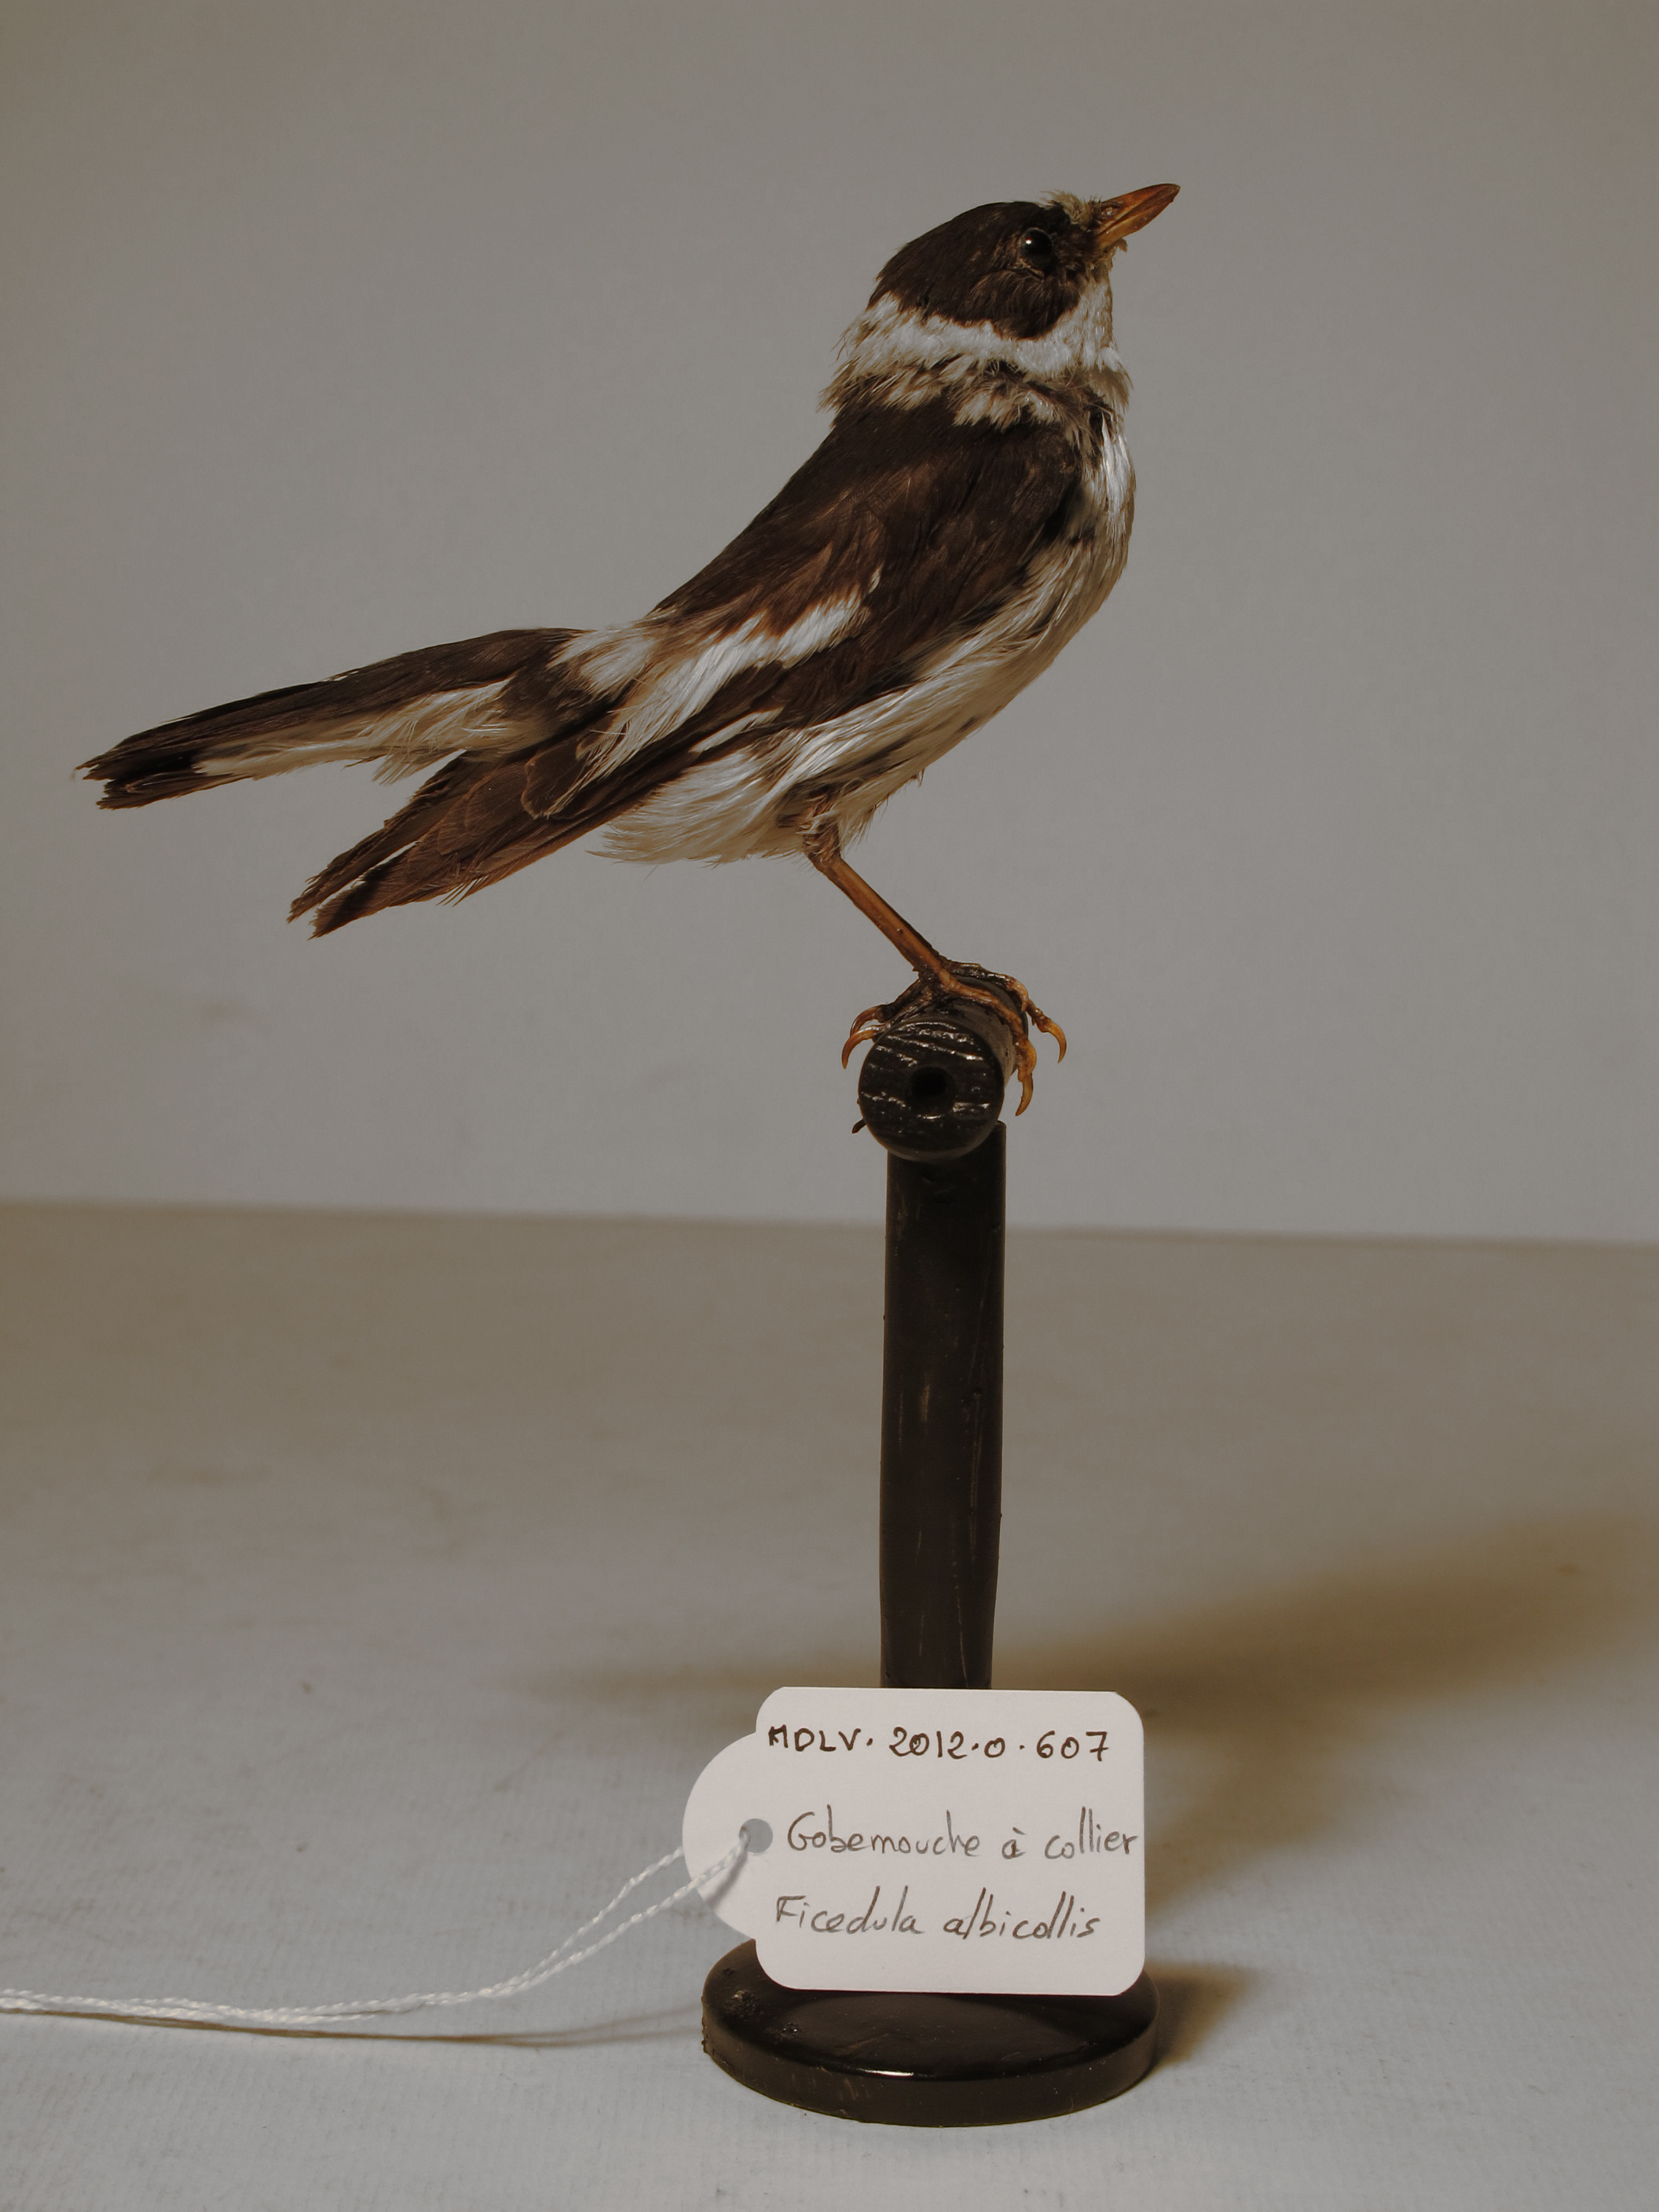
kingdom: Animalia
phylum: Chordata
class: Aves
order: Passeriformes
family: Muscicapidae
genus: Ficedula
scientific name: Ficedula albicollis
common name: Collared Flycatcher
